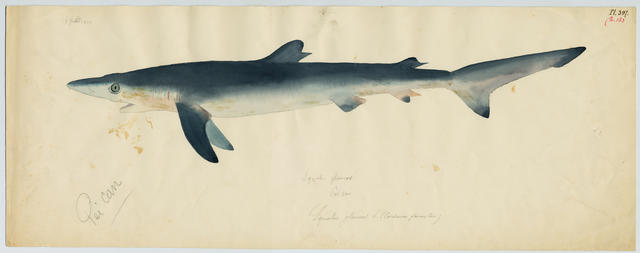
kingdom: Animalia
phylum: Chordata
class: Elasmobranchii
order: Carcharhiniformes
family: Carcharhinidae
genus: Prionace
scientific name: Prionace glauca
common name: Blue shark
